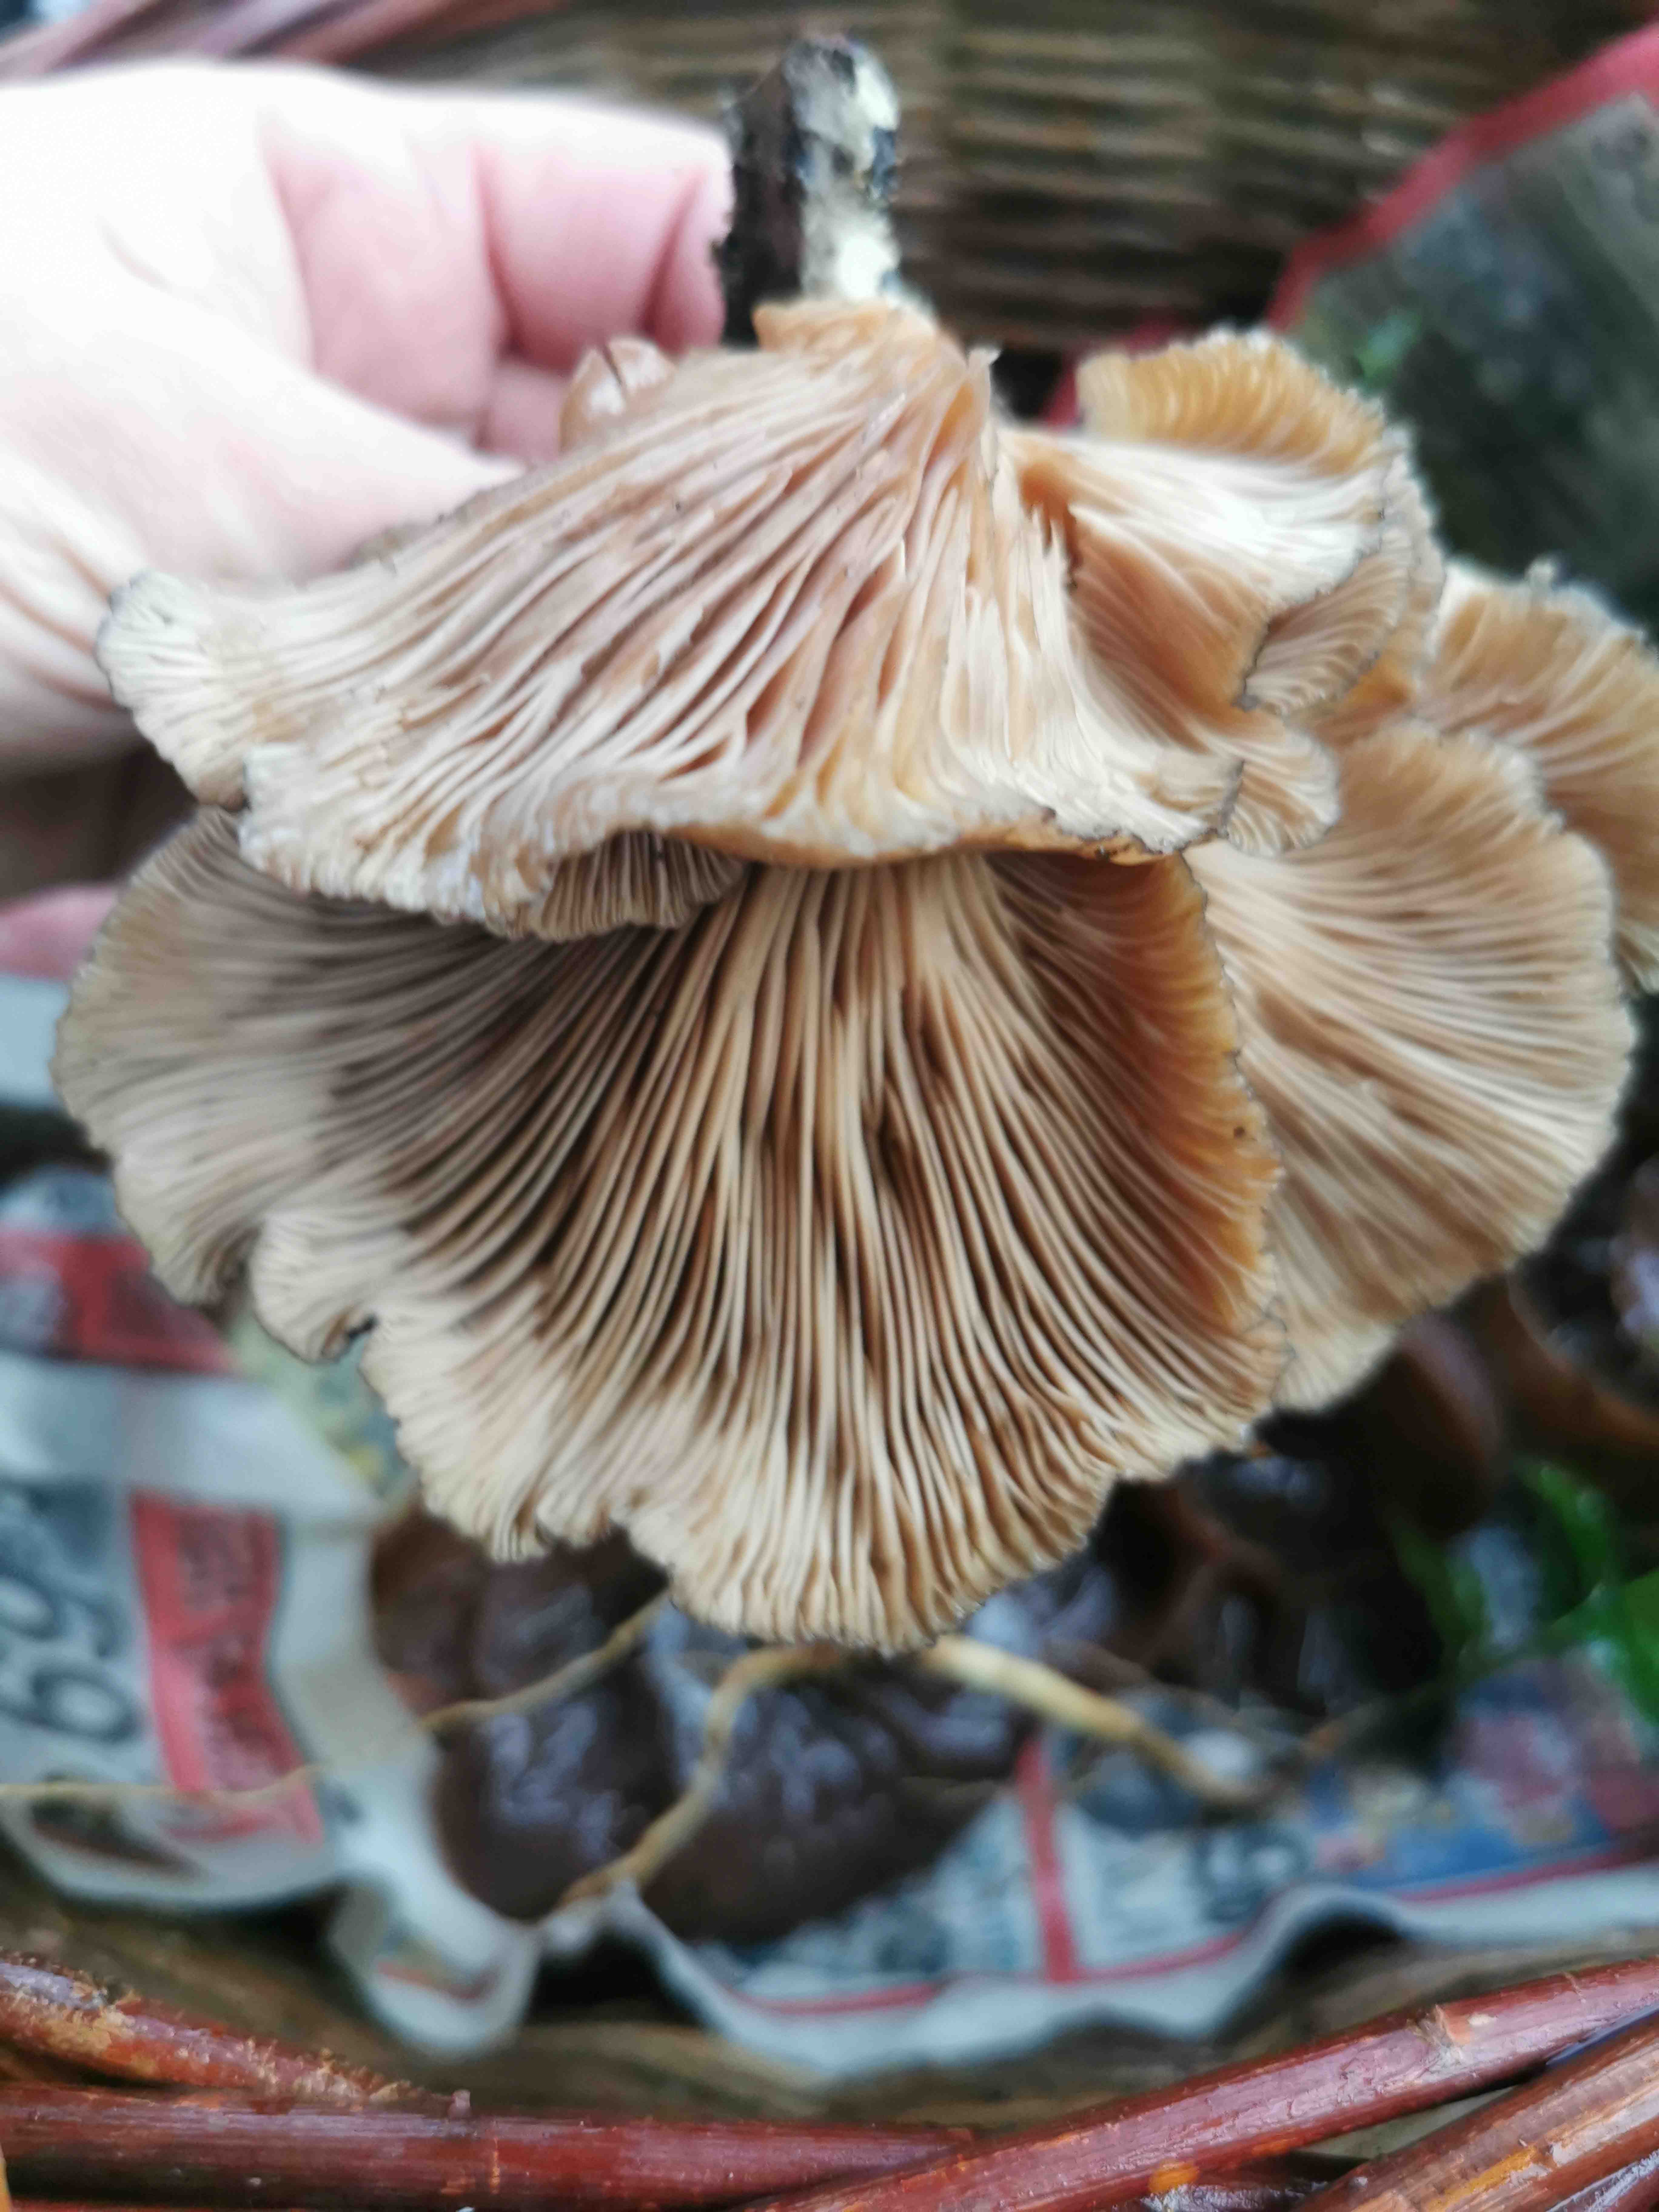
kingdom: Fungi
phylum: Basidiomycota
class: Agaricomycetes
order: Agaricales
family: Pleurotaceae
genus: Pleurotus
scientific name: Pleurotus ostreatus
